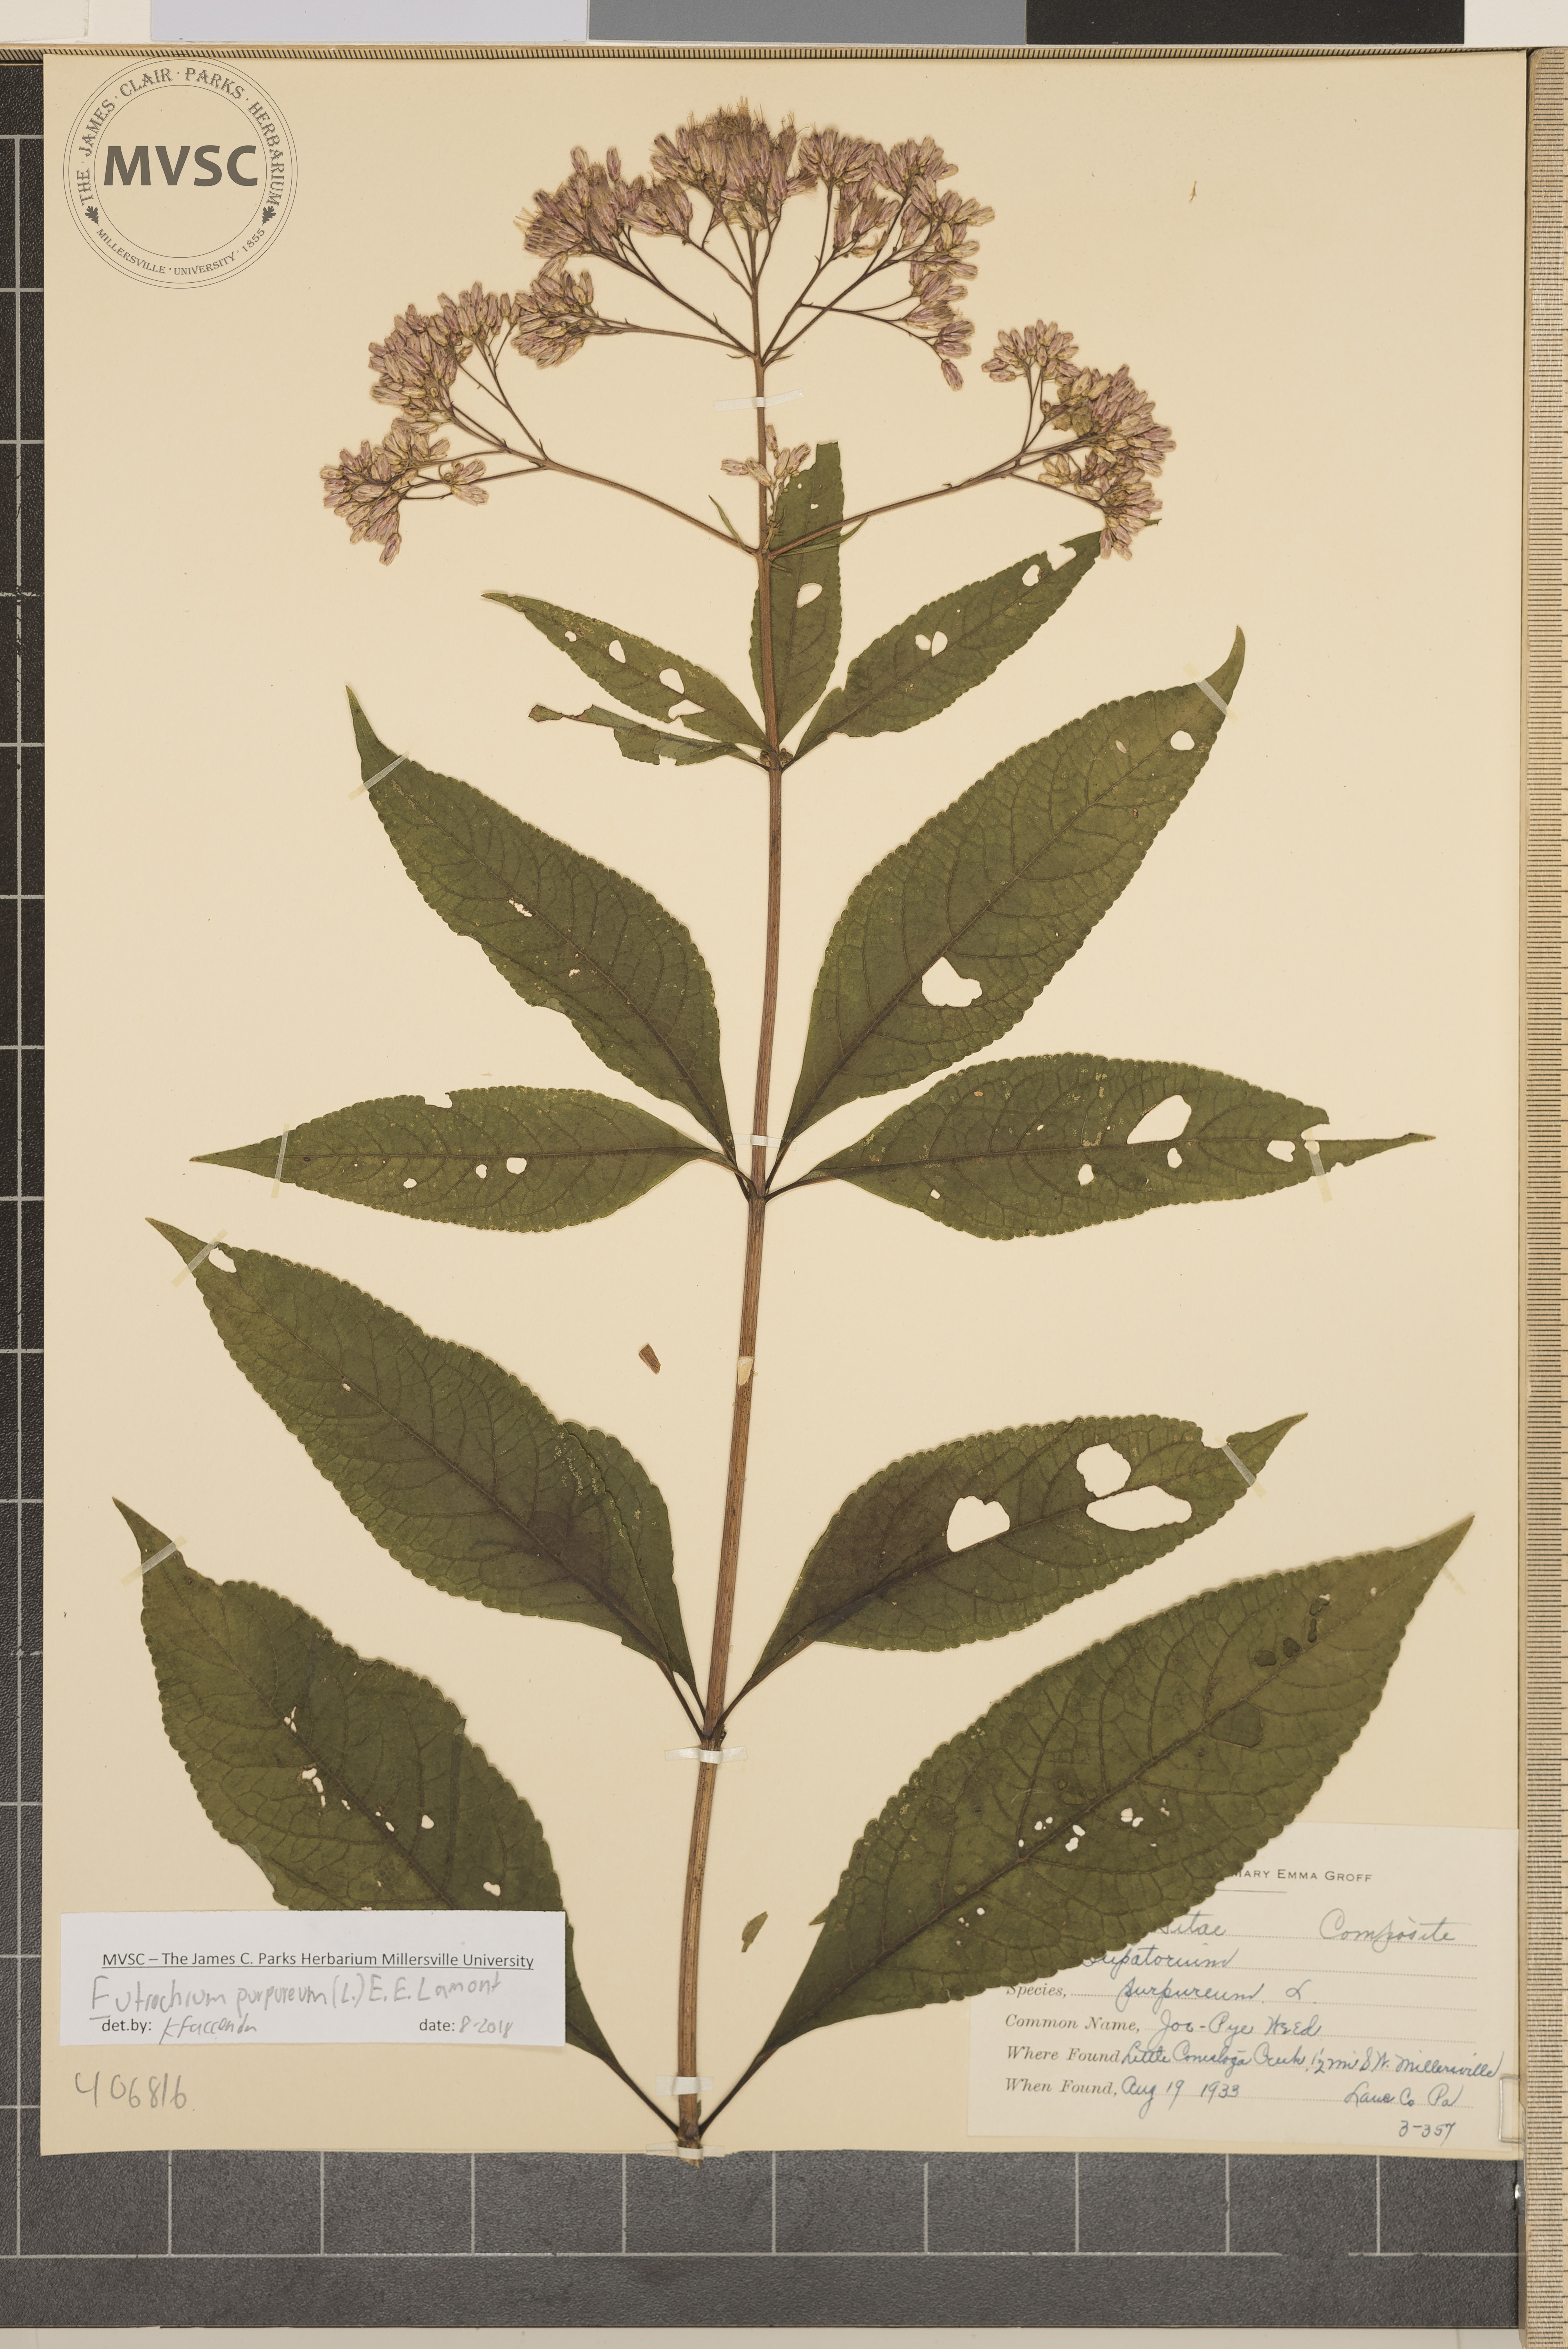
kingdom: Plantae
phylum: Tracheophyta
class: Magnoliopsida
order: Asterales
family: Asteraceae
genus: Eutrochium
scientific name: Eutrochium purpureum
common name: Joe-Pye-Weed
